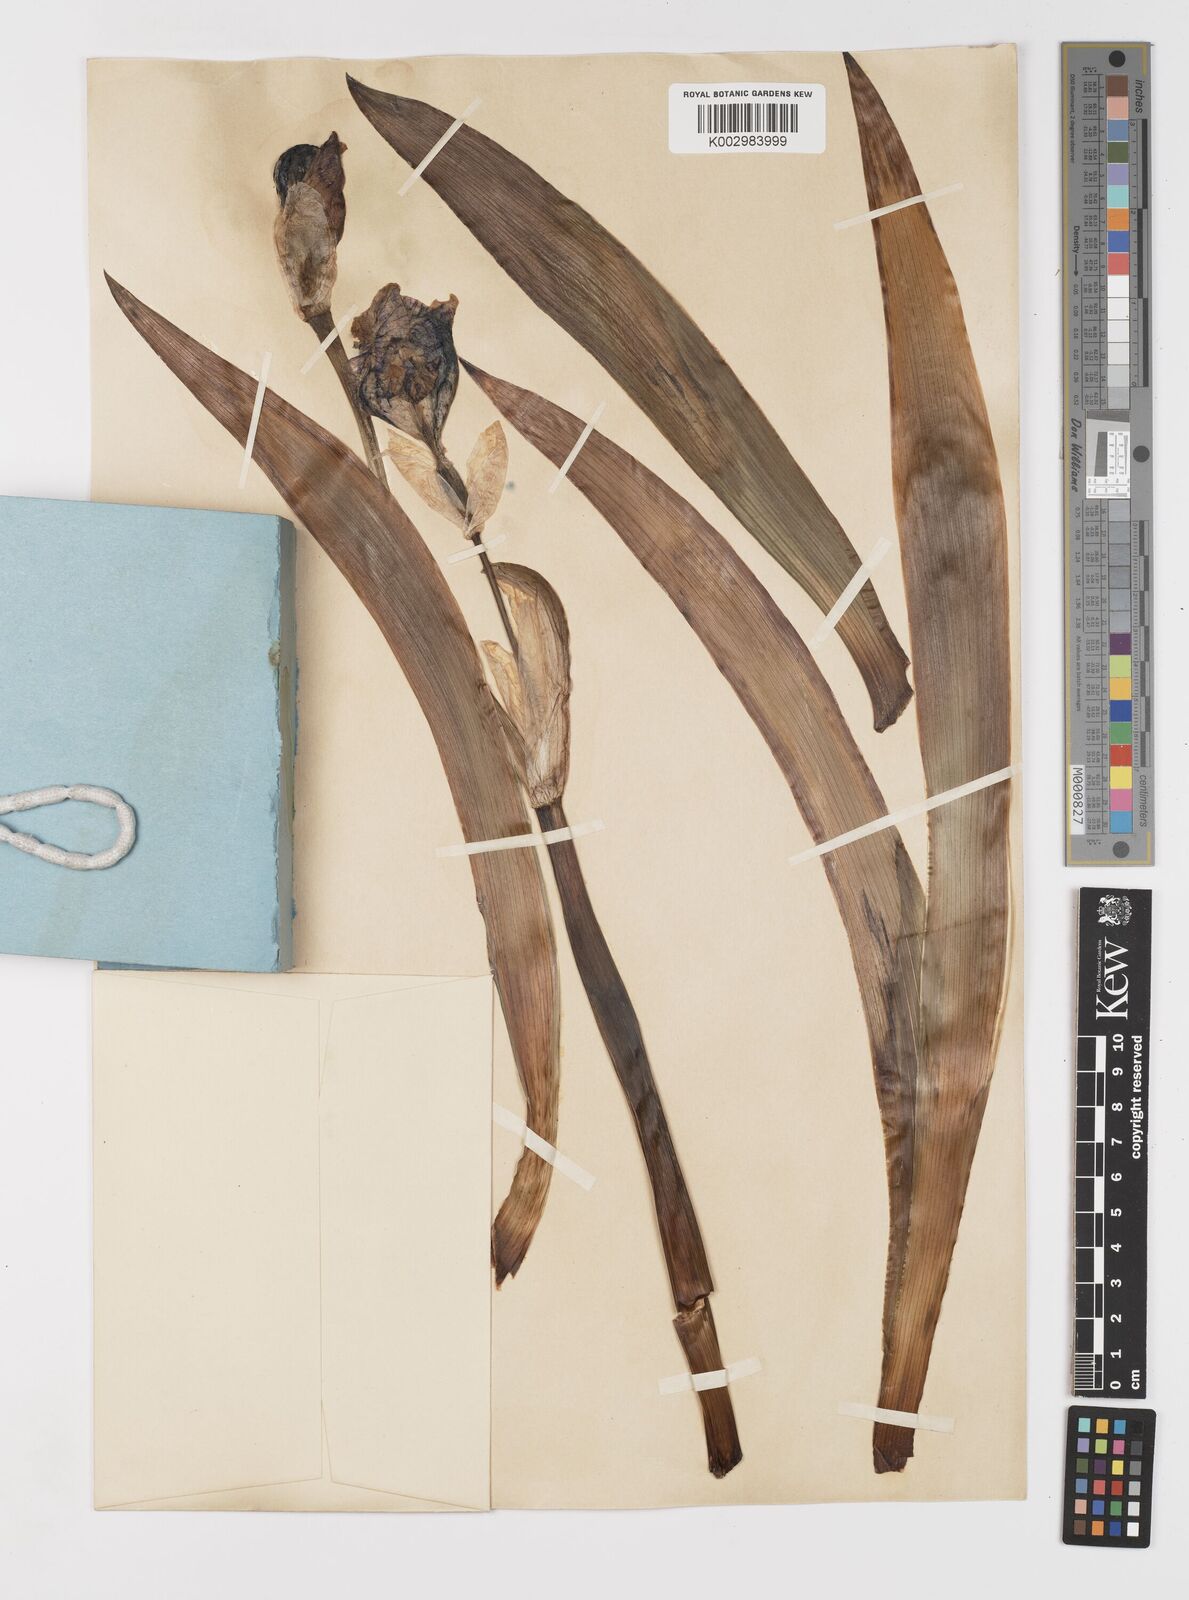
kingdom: Plantae
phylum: Tracheophyta
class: Liliopsida
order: Asparagales
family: Iridaceae
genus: Iris
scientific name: Iris halophila
